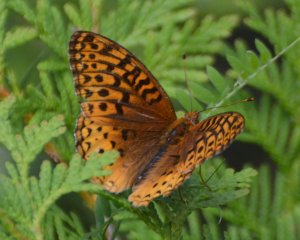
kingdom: Animalia
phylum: Arthropoda
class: Insecta
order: Lepidoptera
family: Nymphalidae
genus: Speyeria
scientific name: Speyeria cybele
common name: Great Spangled Fritillary
